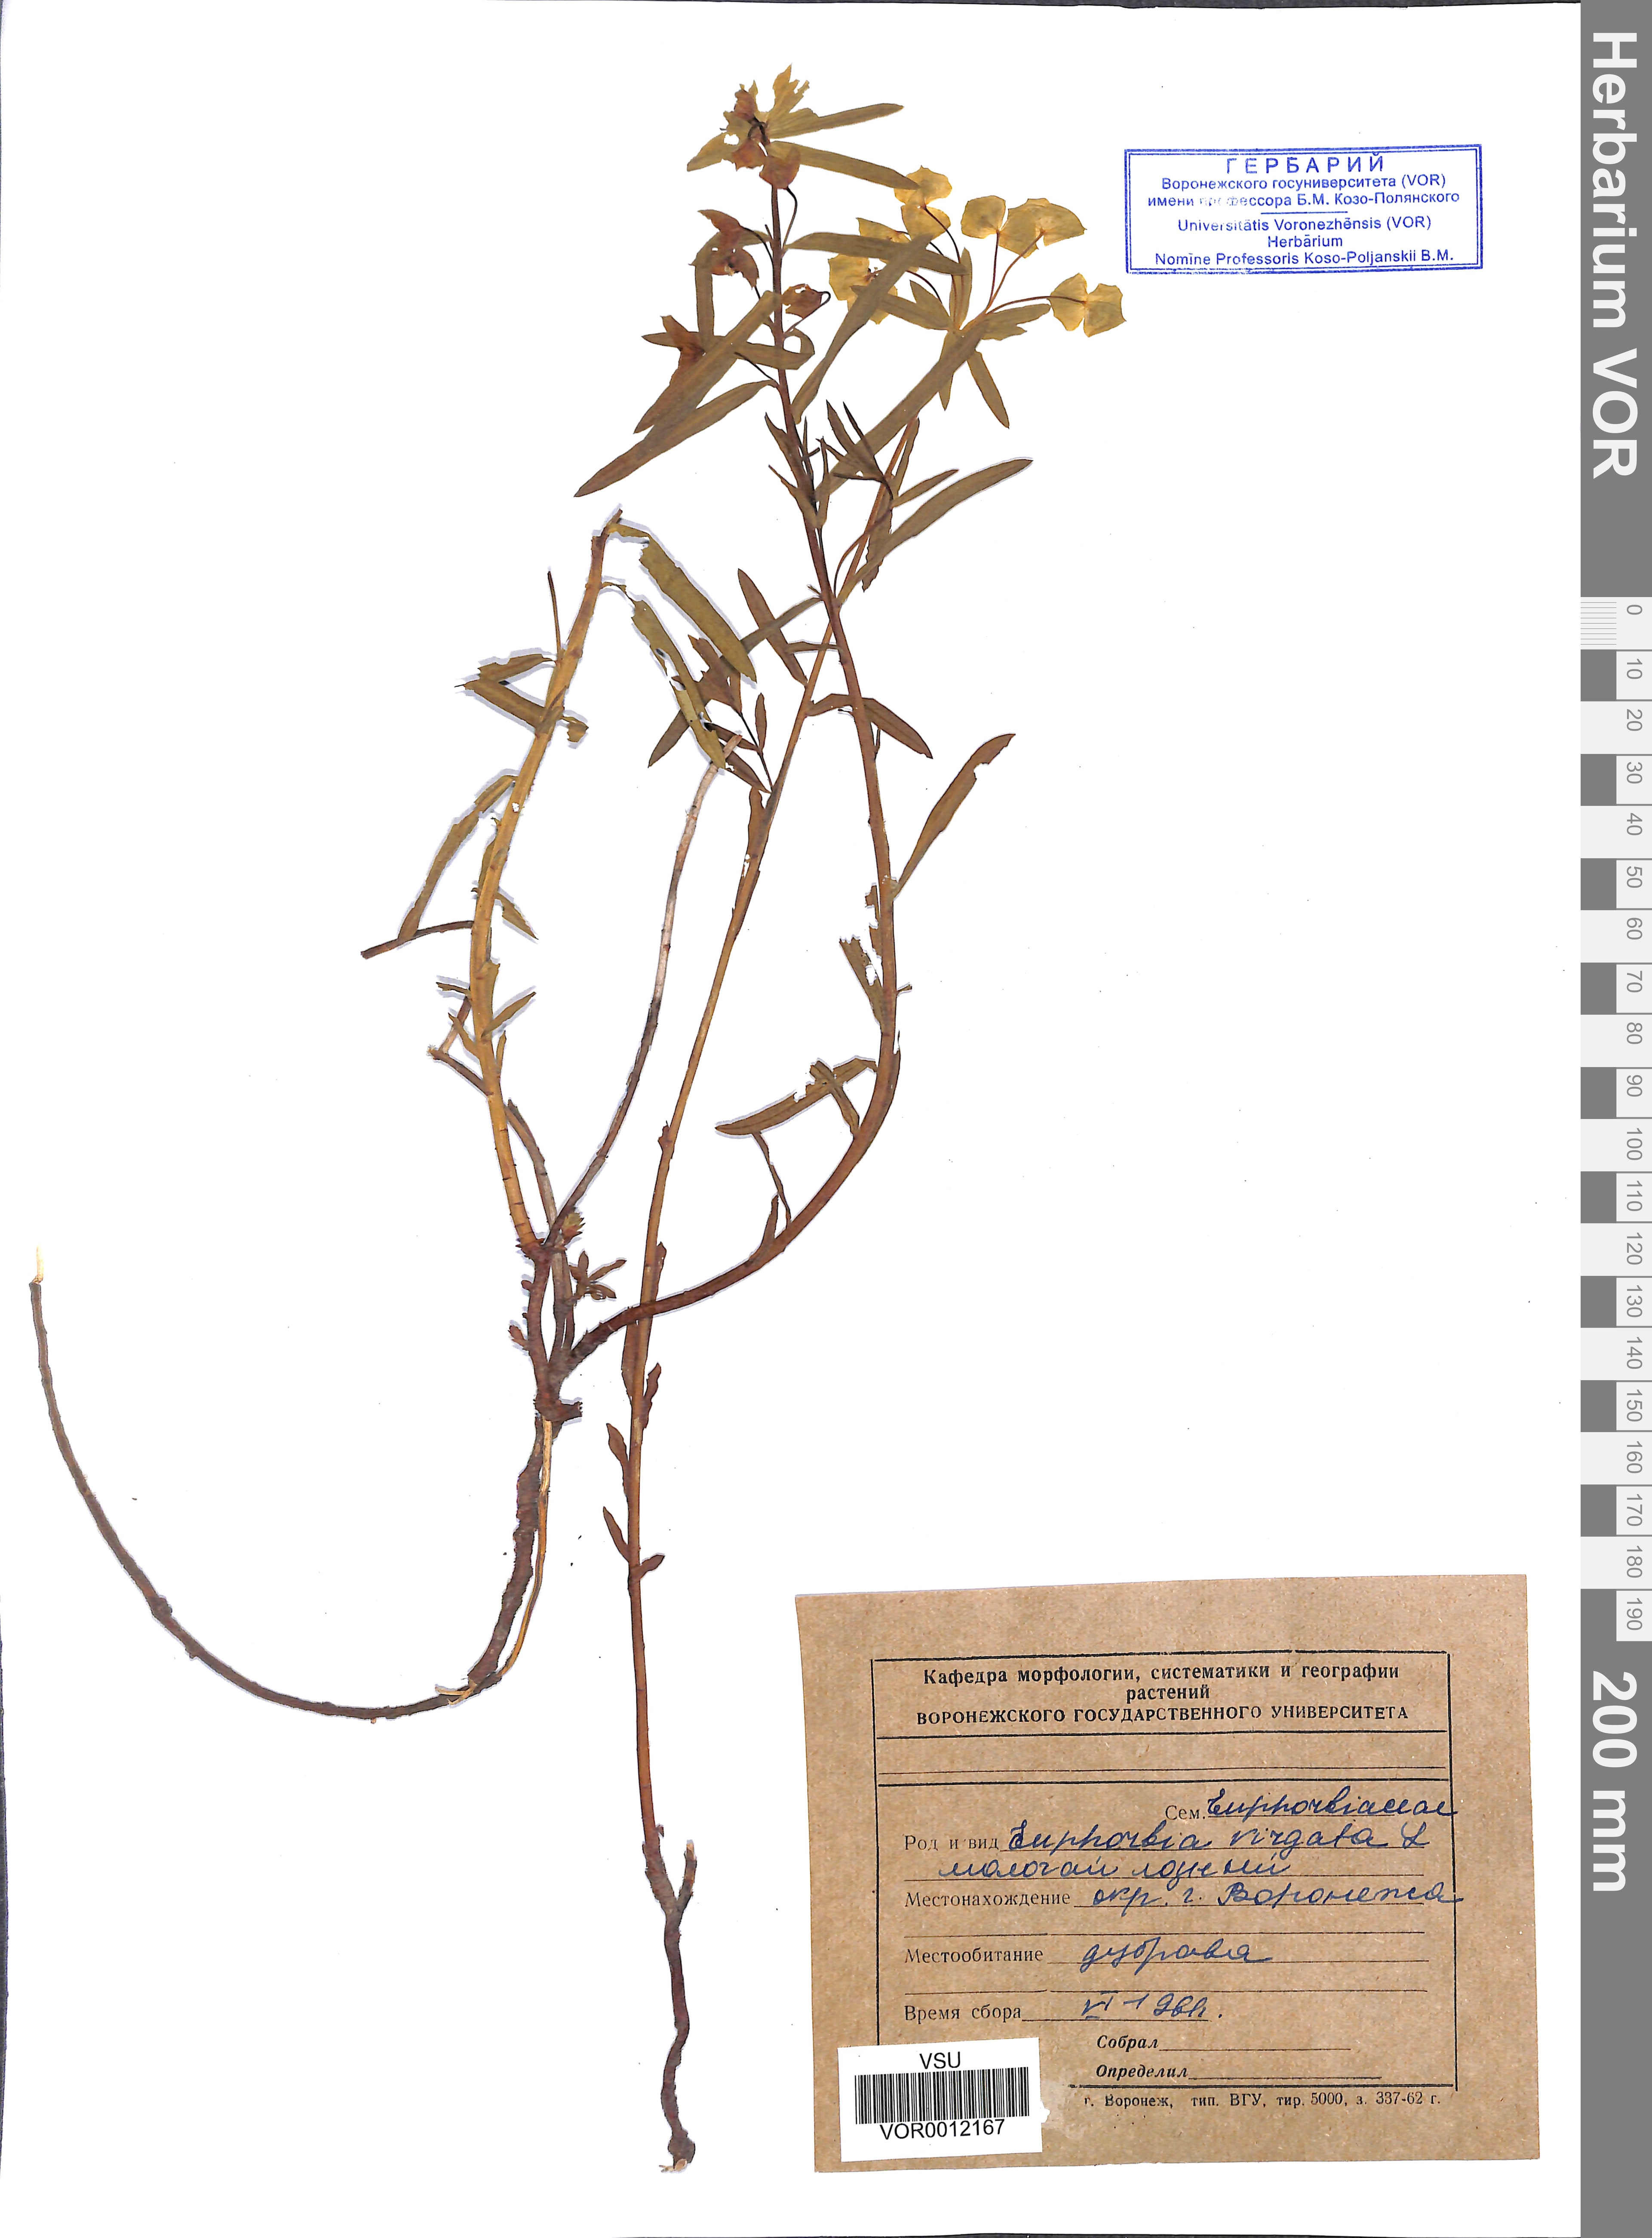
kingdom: Plantae
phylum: Tracheophyta
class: Magnoliopsida
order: Malpighiales
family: Euphorbiaceae
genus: Euphorbia
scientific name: Euphorbia virgata
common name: Leafy spurge
